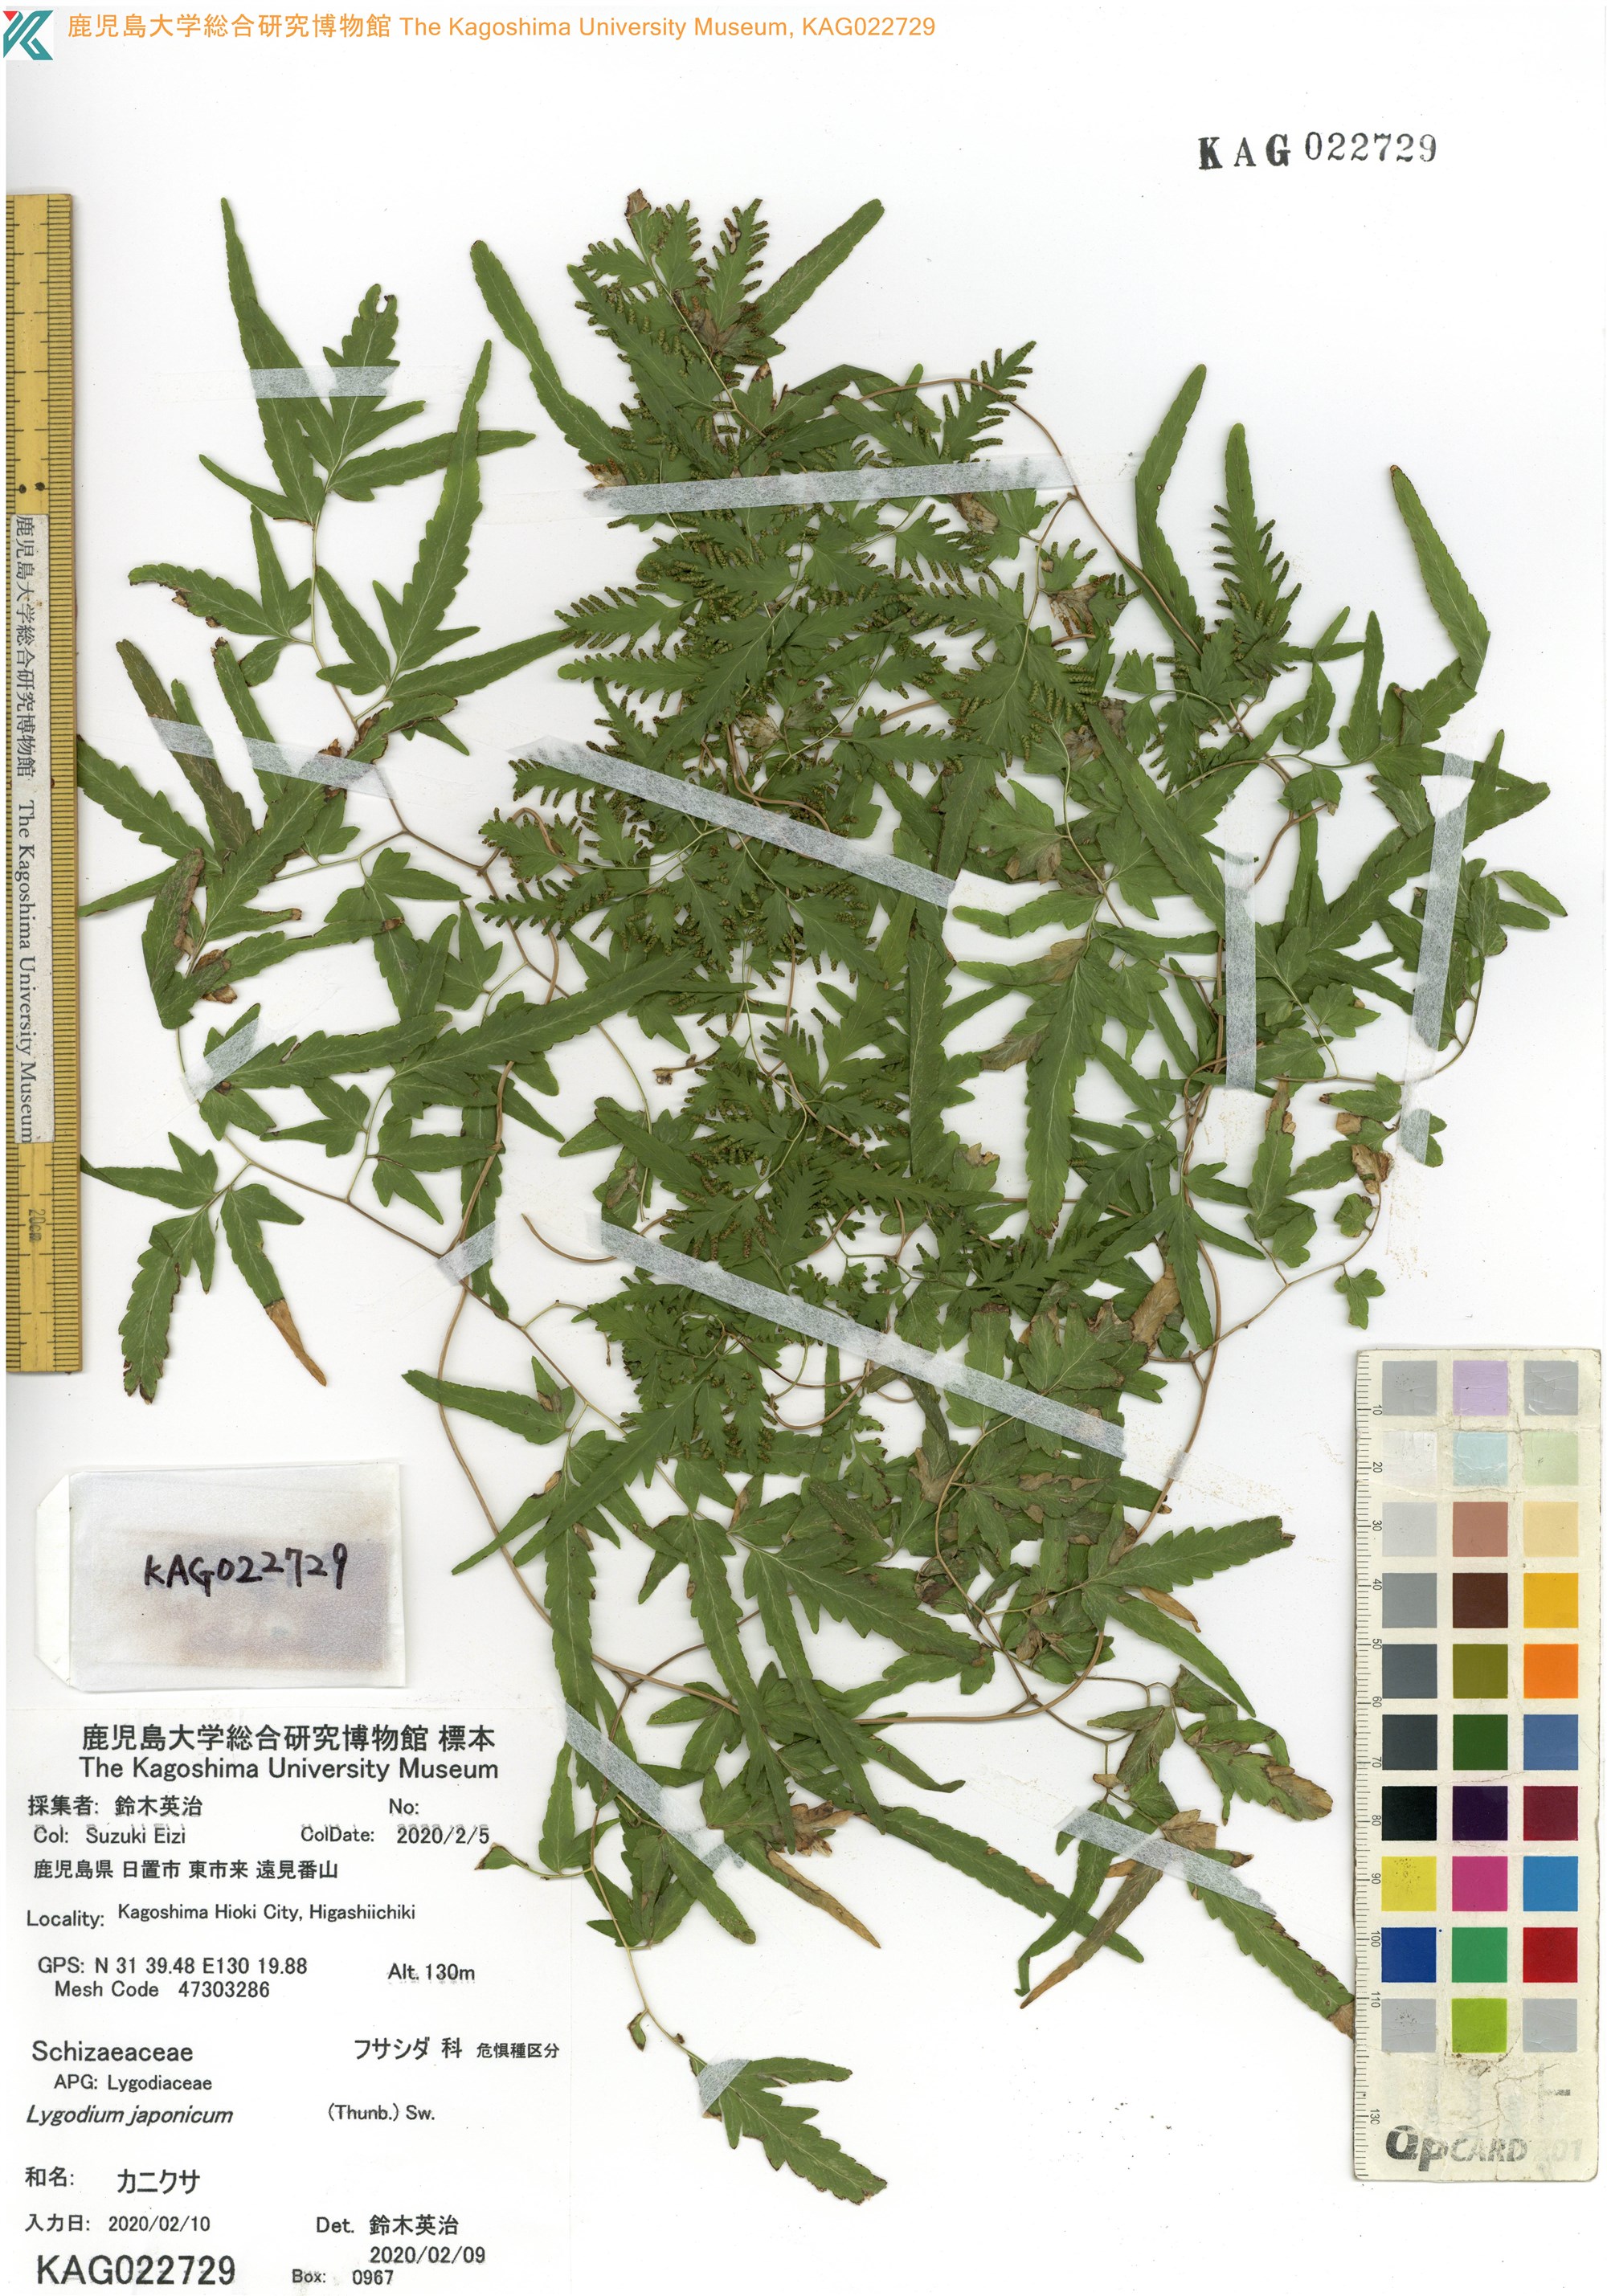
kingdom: Plantae
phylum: Tracheophyta
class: Polypodiopsida
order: Schizaeales
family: Lygodiaceae
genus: Lygodium
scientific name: Lygodium japonicum
